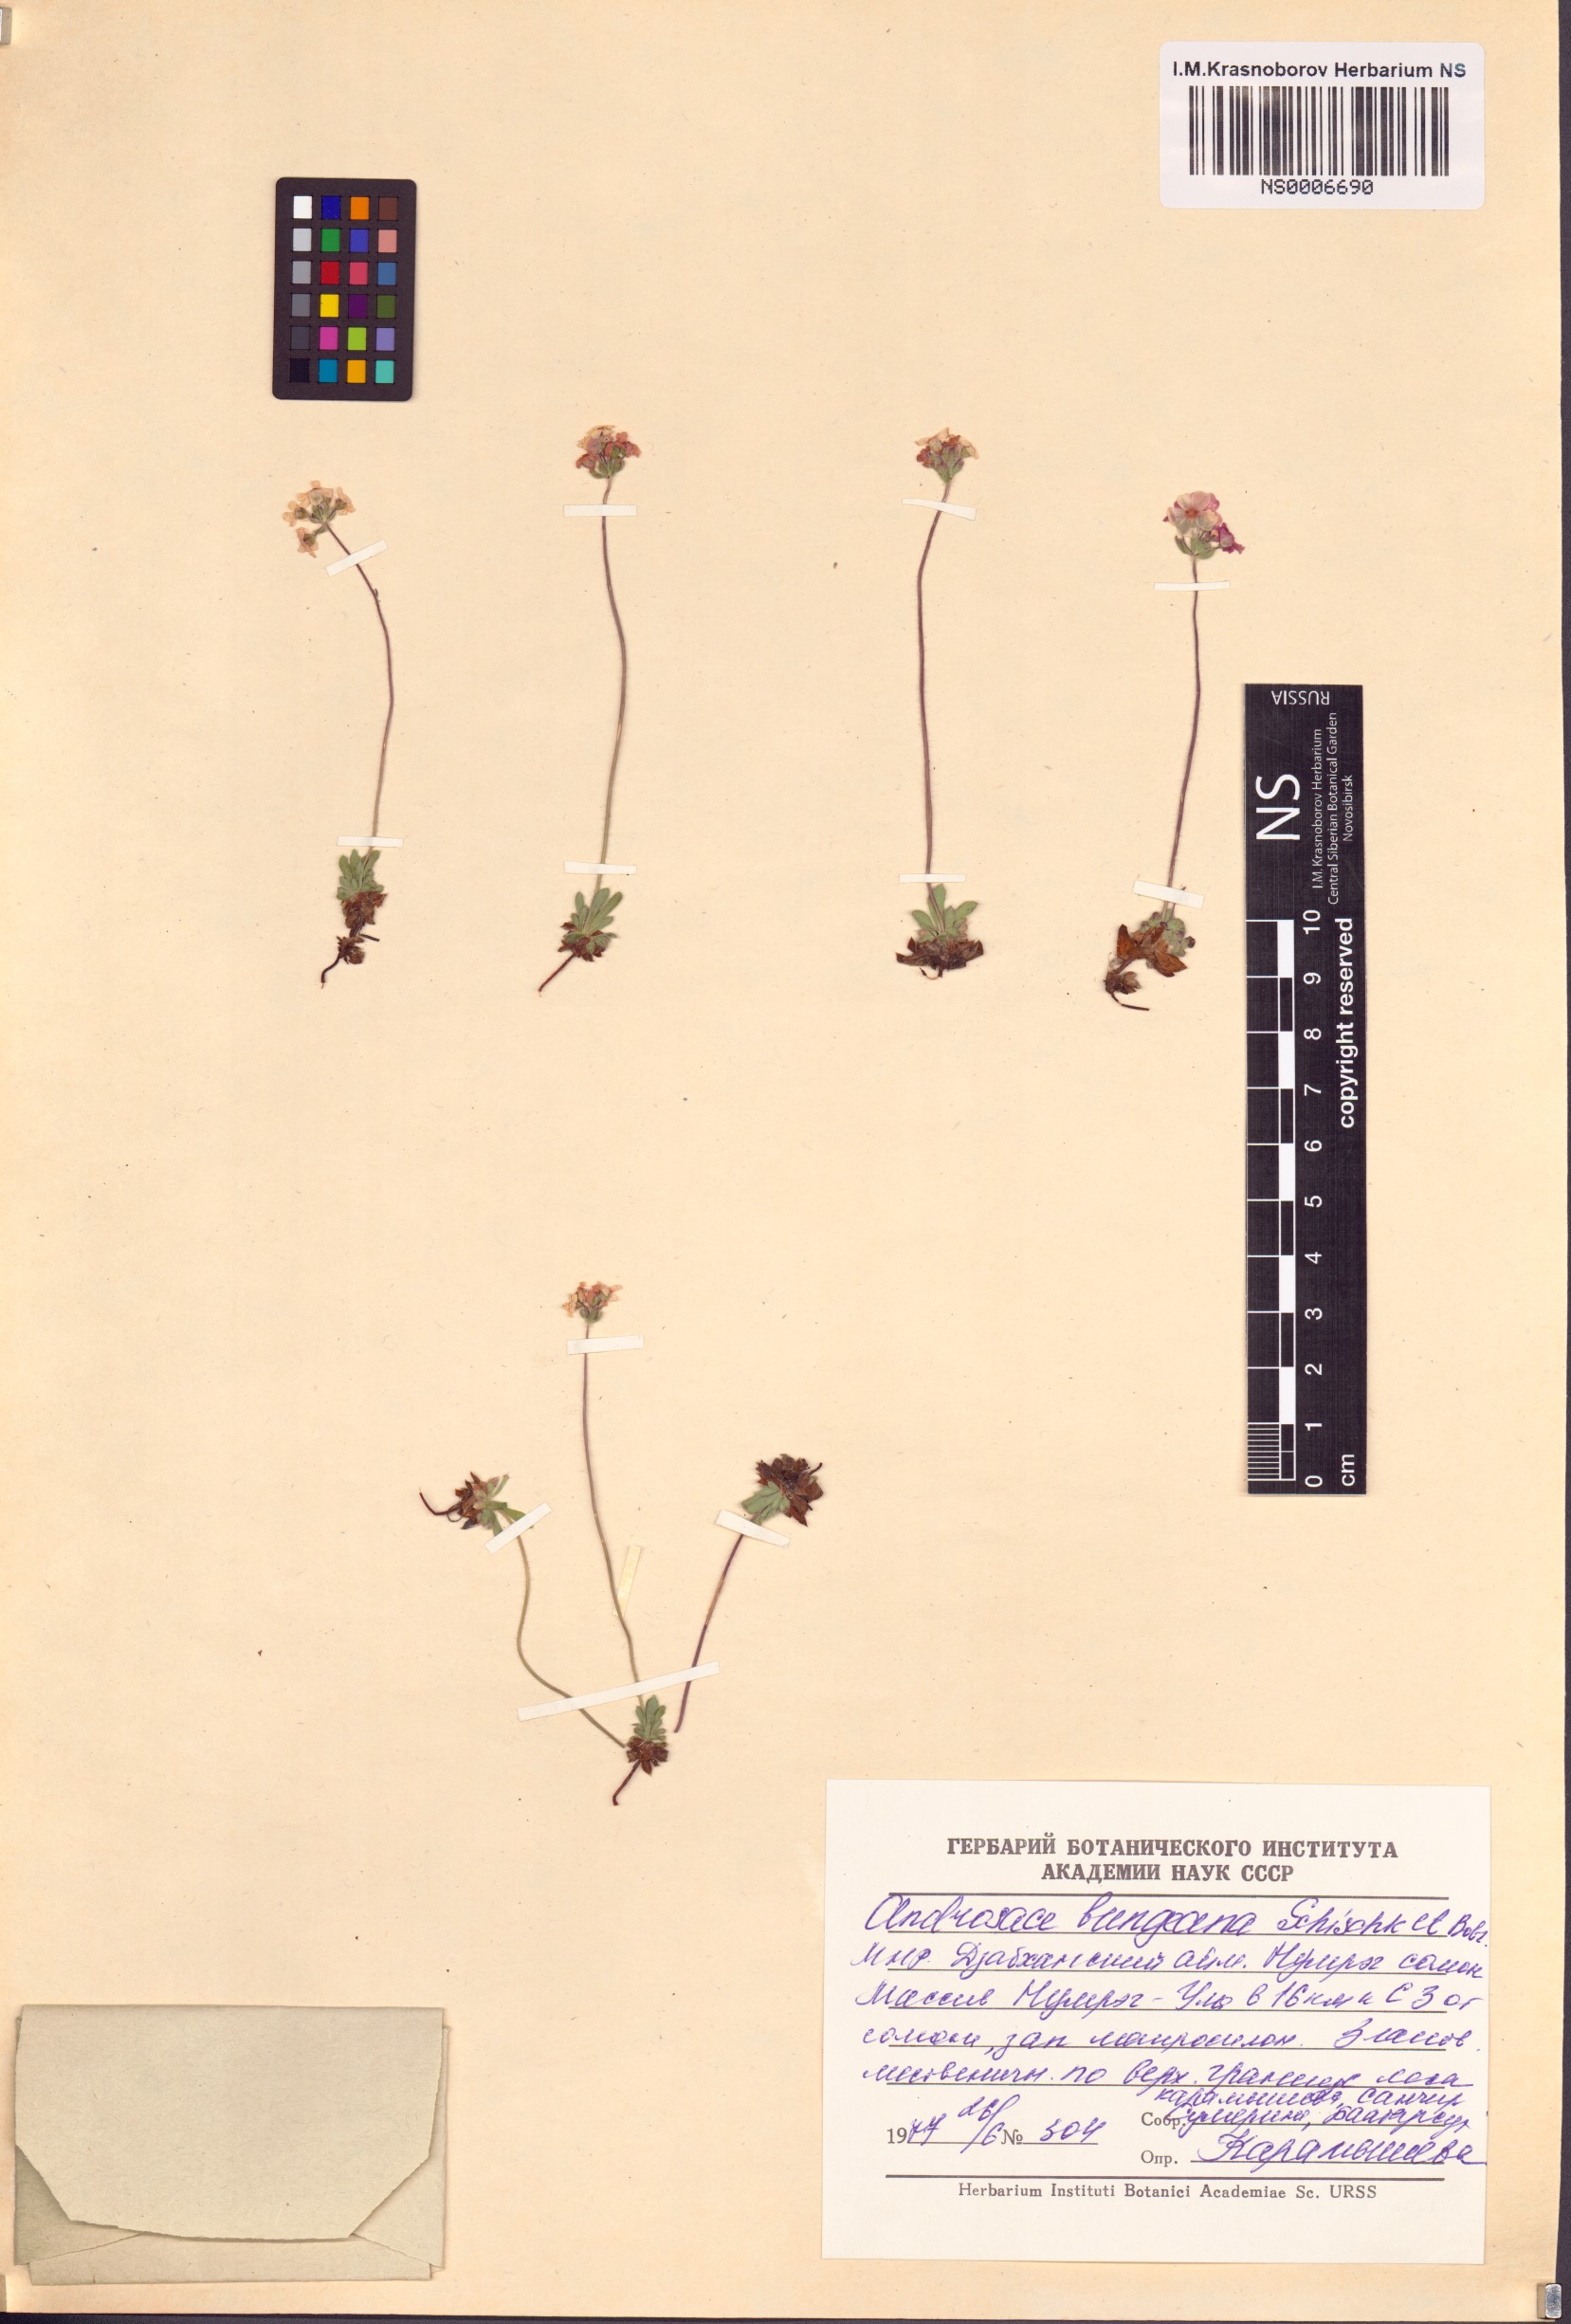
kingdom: Plantae
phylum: Tracheophyta
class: Magnoliopsida
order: Ericales
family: Primulaceae
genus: Androsace
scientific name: Androsace bungeana
